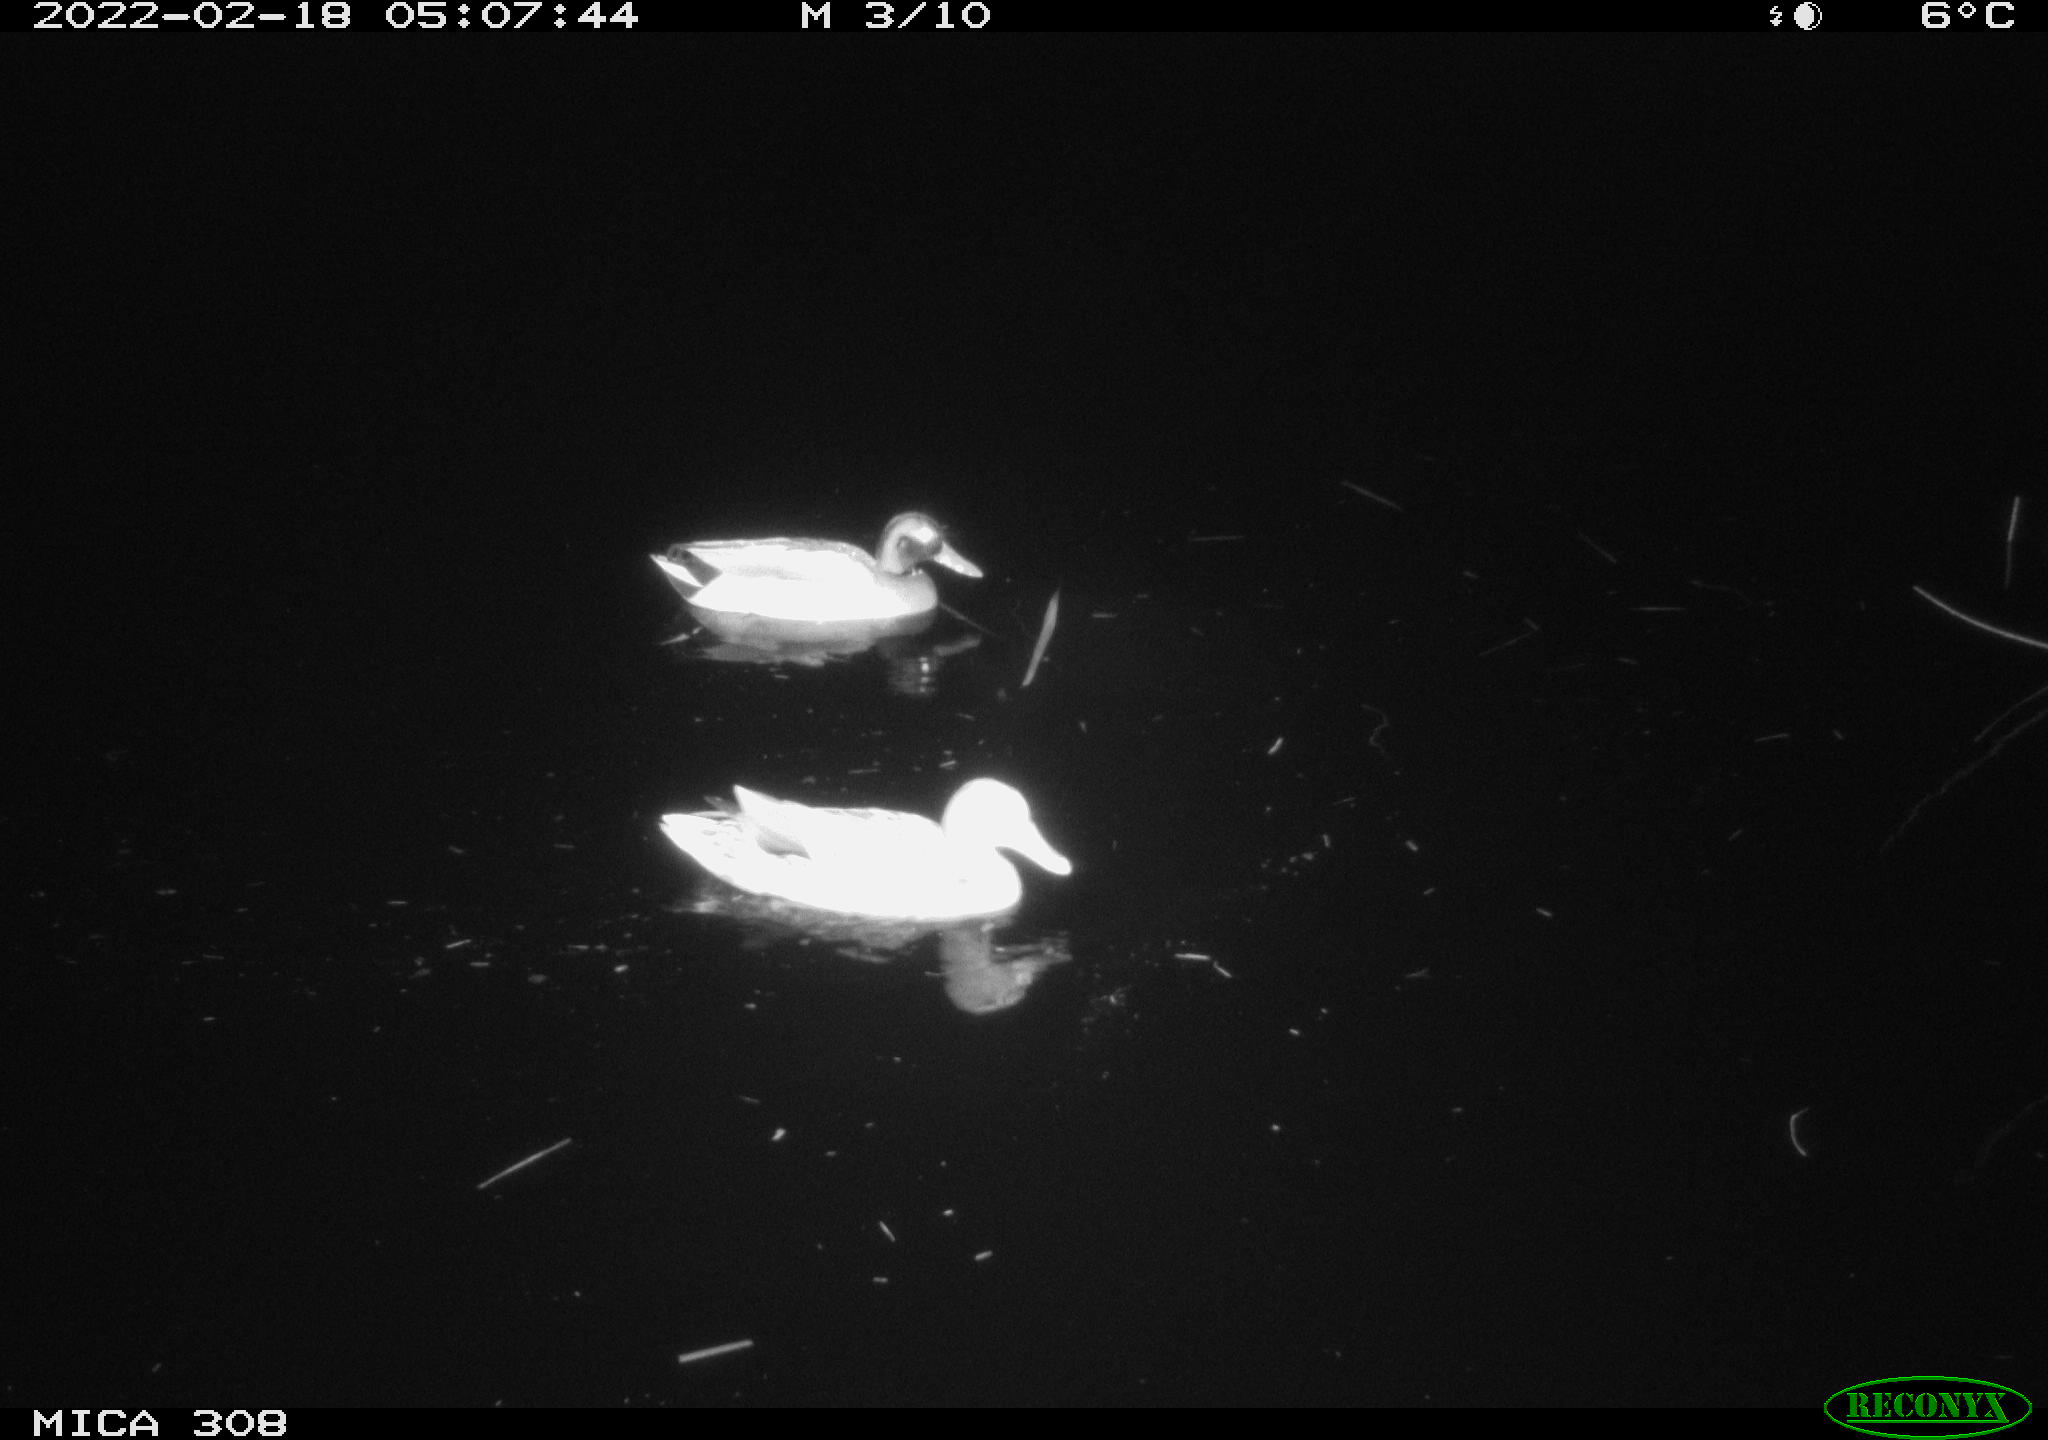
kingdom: Animalia
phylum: Chordata
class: Aves
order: Anseriformes
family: Anatidae
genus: Anas
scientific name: Anas platyrhynchos
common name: Mallard
